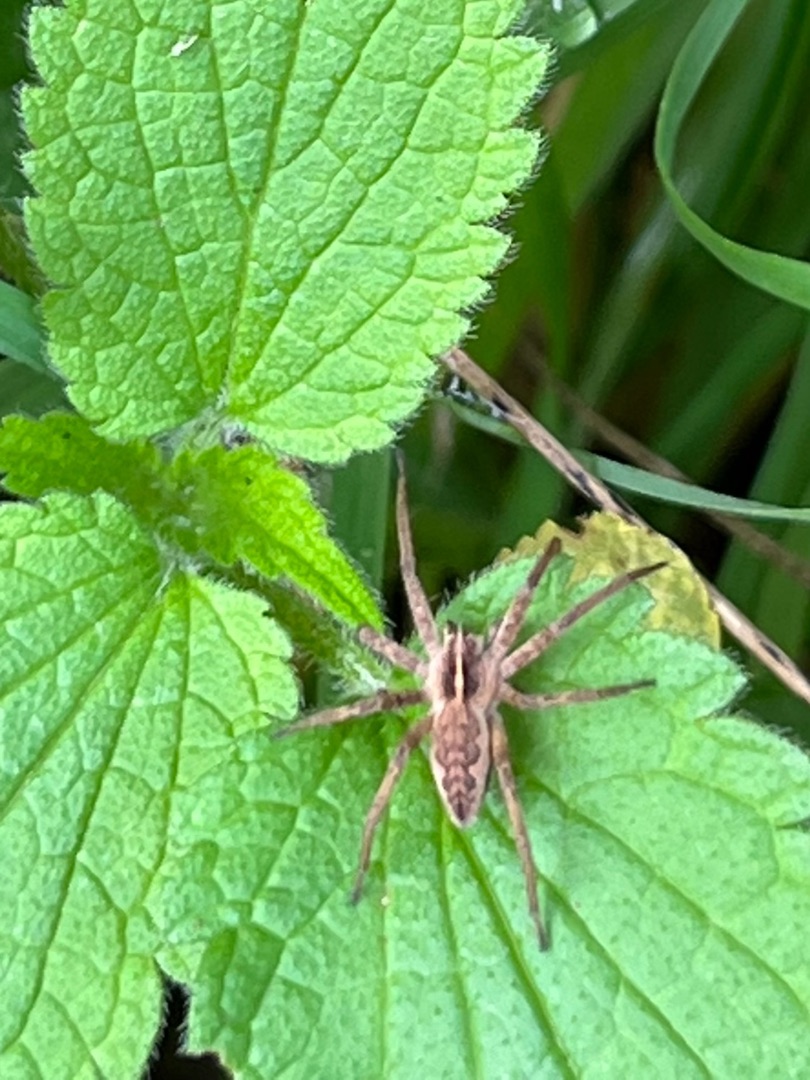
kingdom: Animalia
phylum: Arthropoda
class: Arachnida
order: Araneae
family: Pisauridae
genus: Pisaura
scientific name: Pisaura mirabilis
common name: Almindelig rovedderkop
